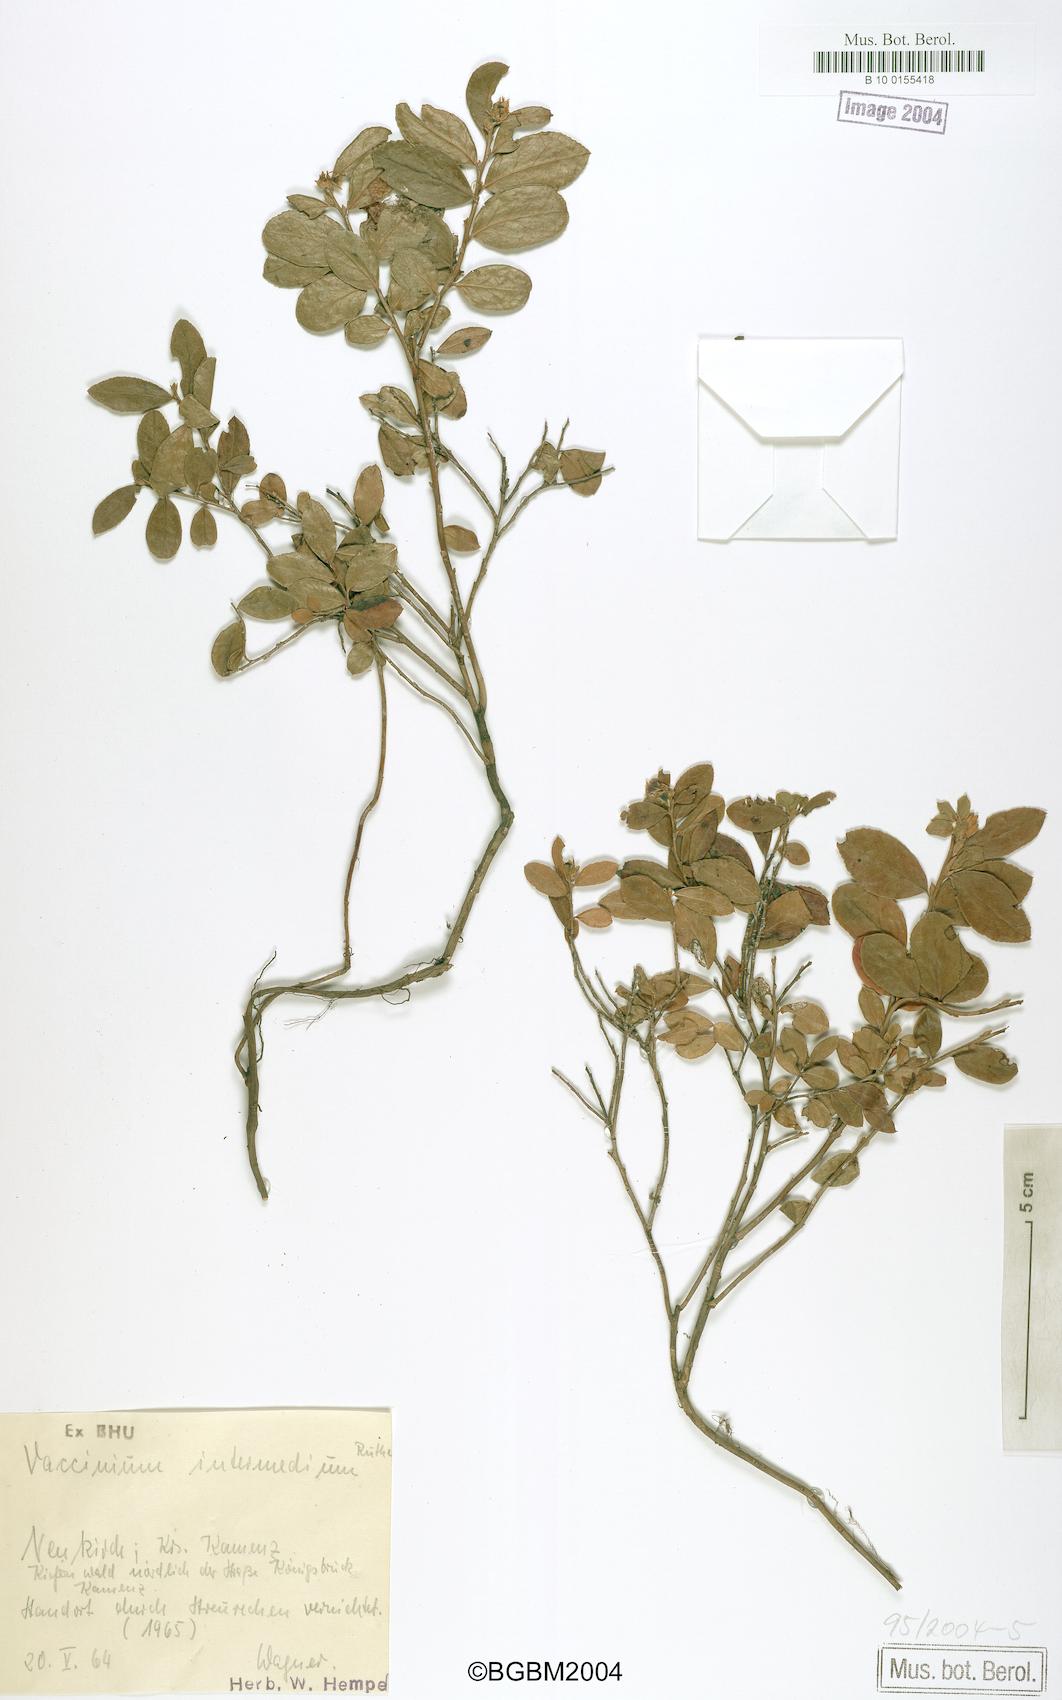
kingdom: Plantae
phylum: Tracheophyta
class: Magnoliopsida
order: Ericales
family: Ericaceae
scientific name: Ericaceae
